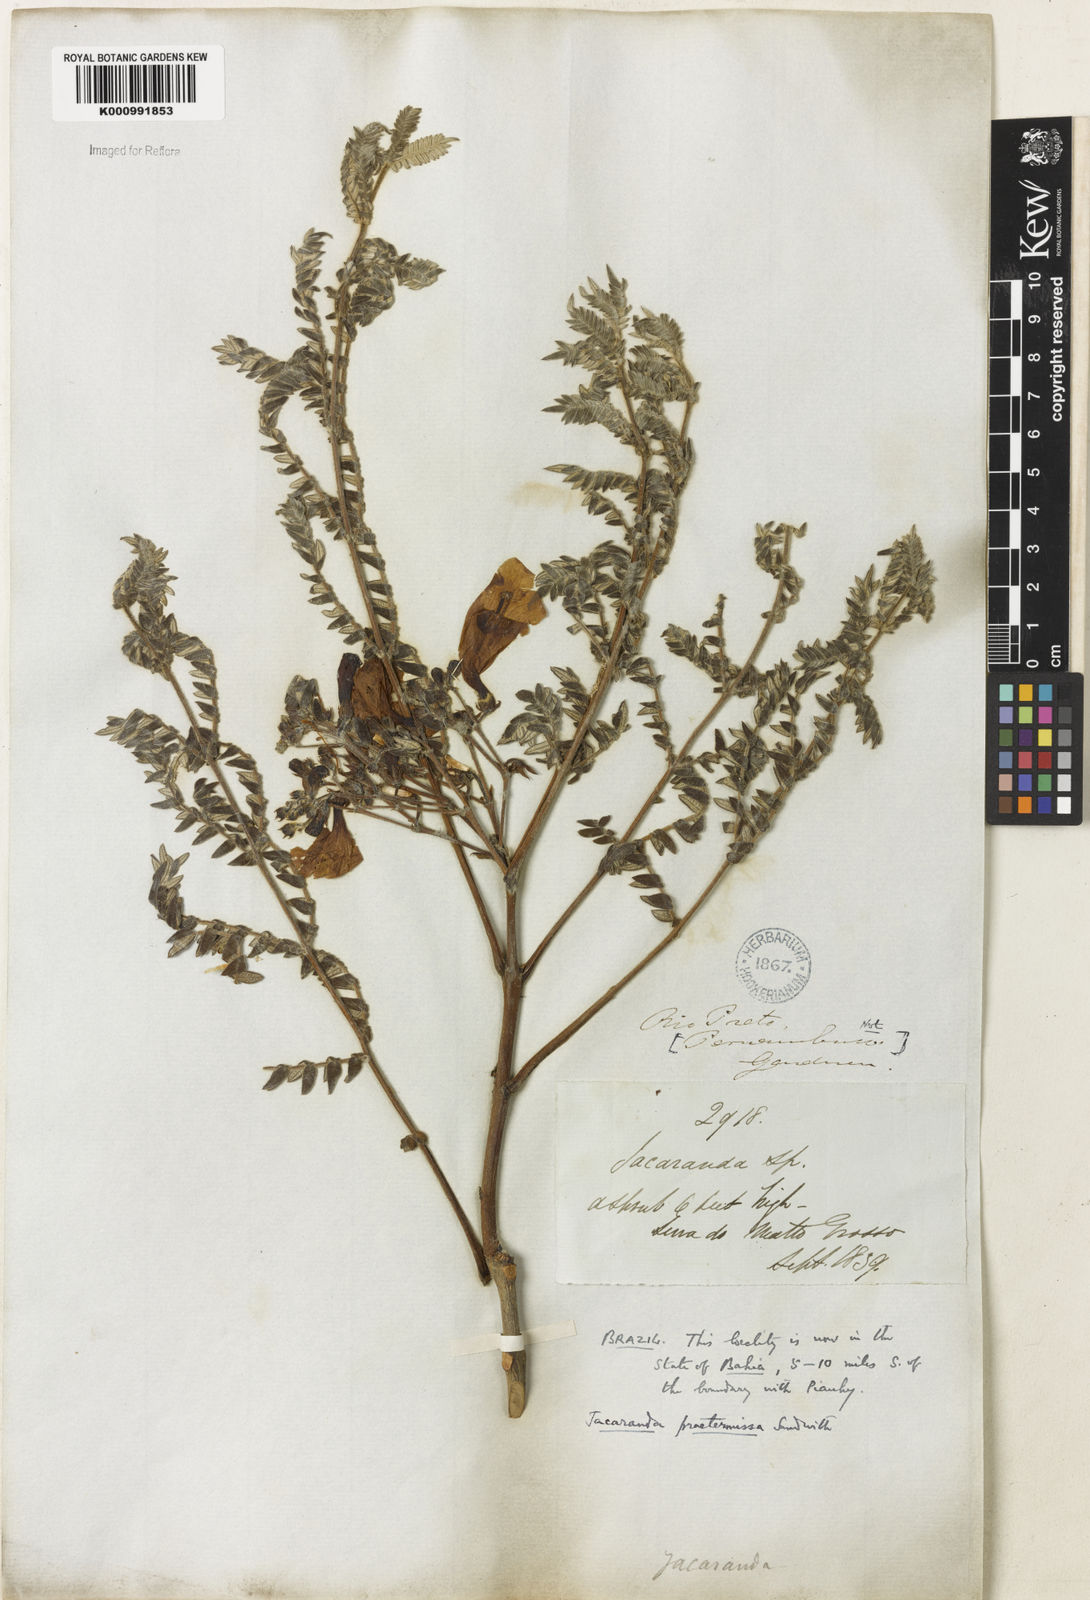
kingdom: Plantae
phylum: Tracheophyta
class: Magnoliopsida
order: Lamiales
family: Bignoniaceae
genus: Jacaranda
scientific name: Jacaranda praetermissa
